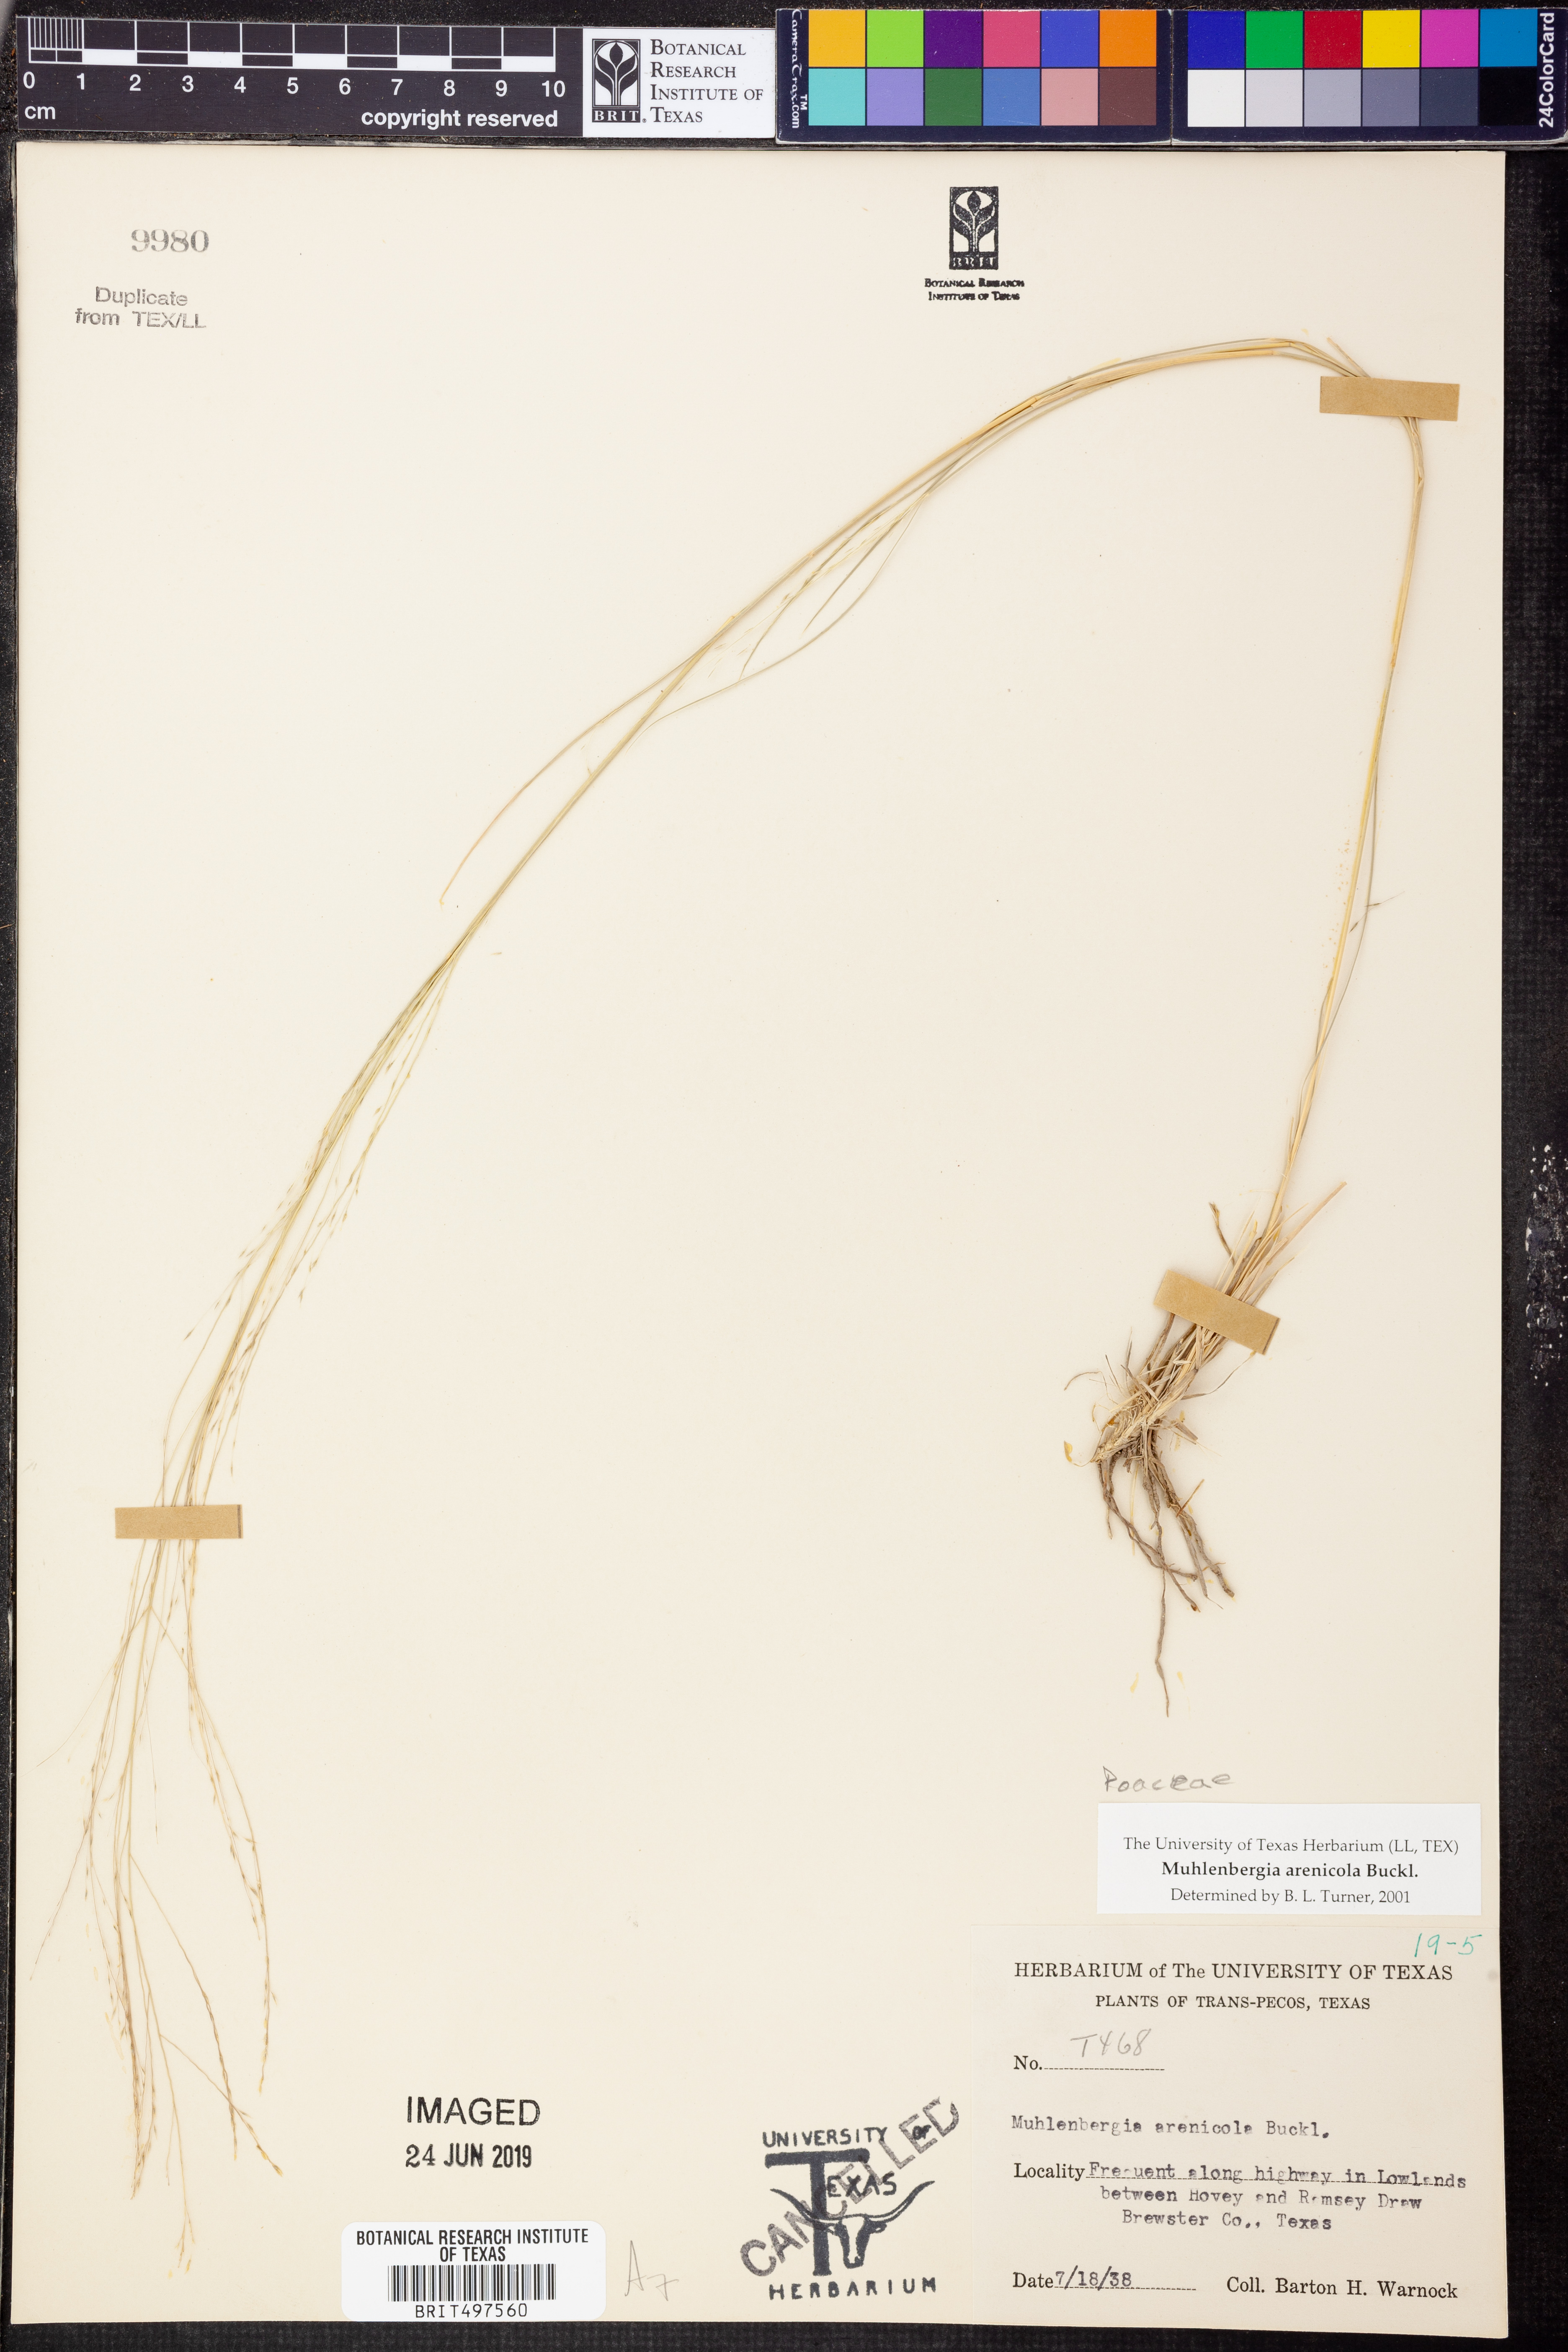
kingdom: Plantae
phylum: Tracheophyta
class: Liliopsida
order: Poales
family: Poaceae
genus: Muhlenbergia
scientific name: Muhlenbergia arenicola
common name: Sand muhly
